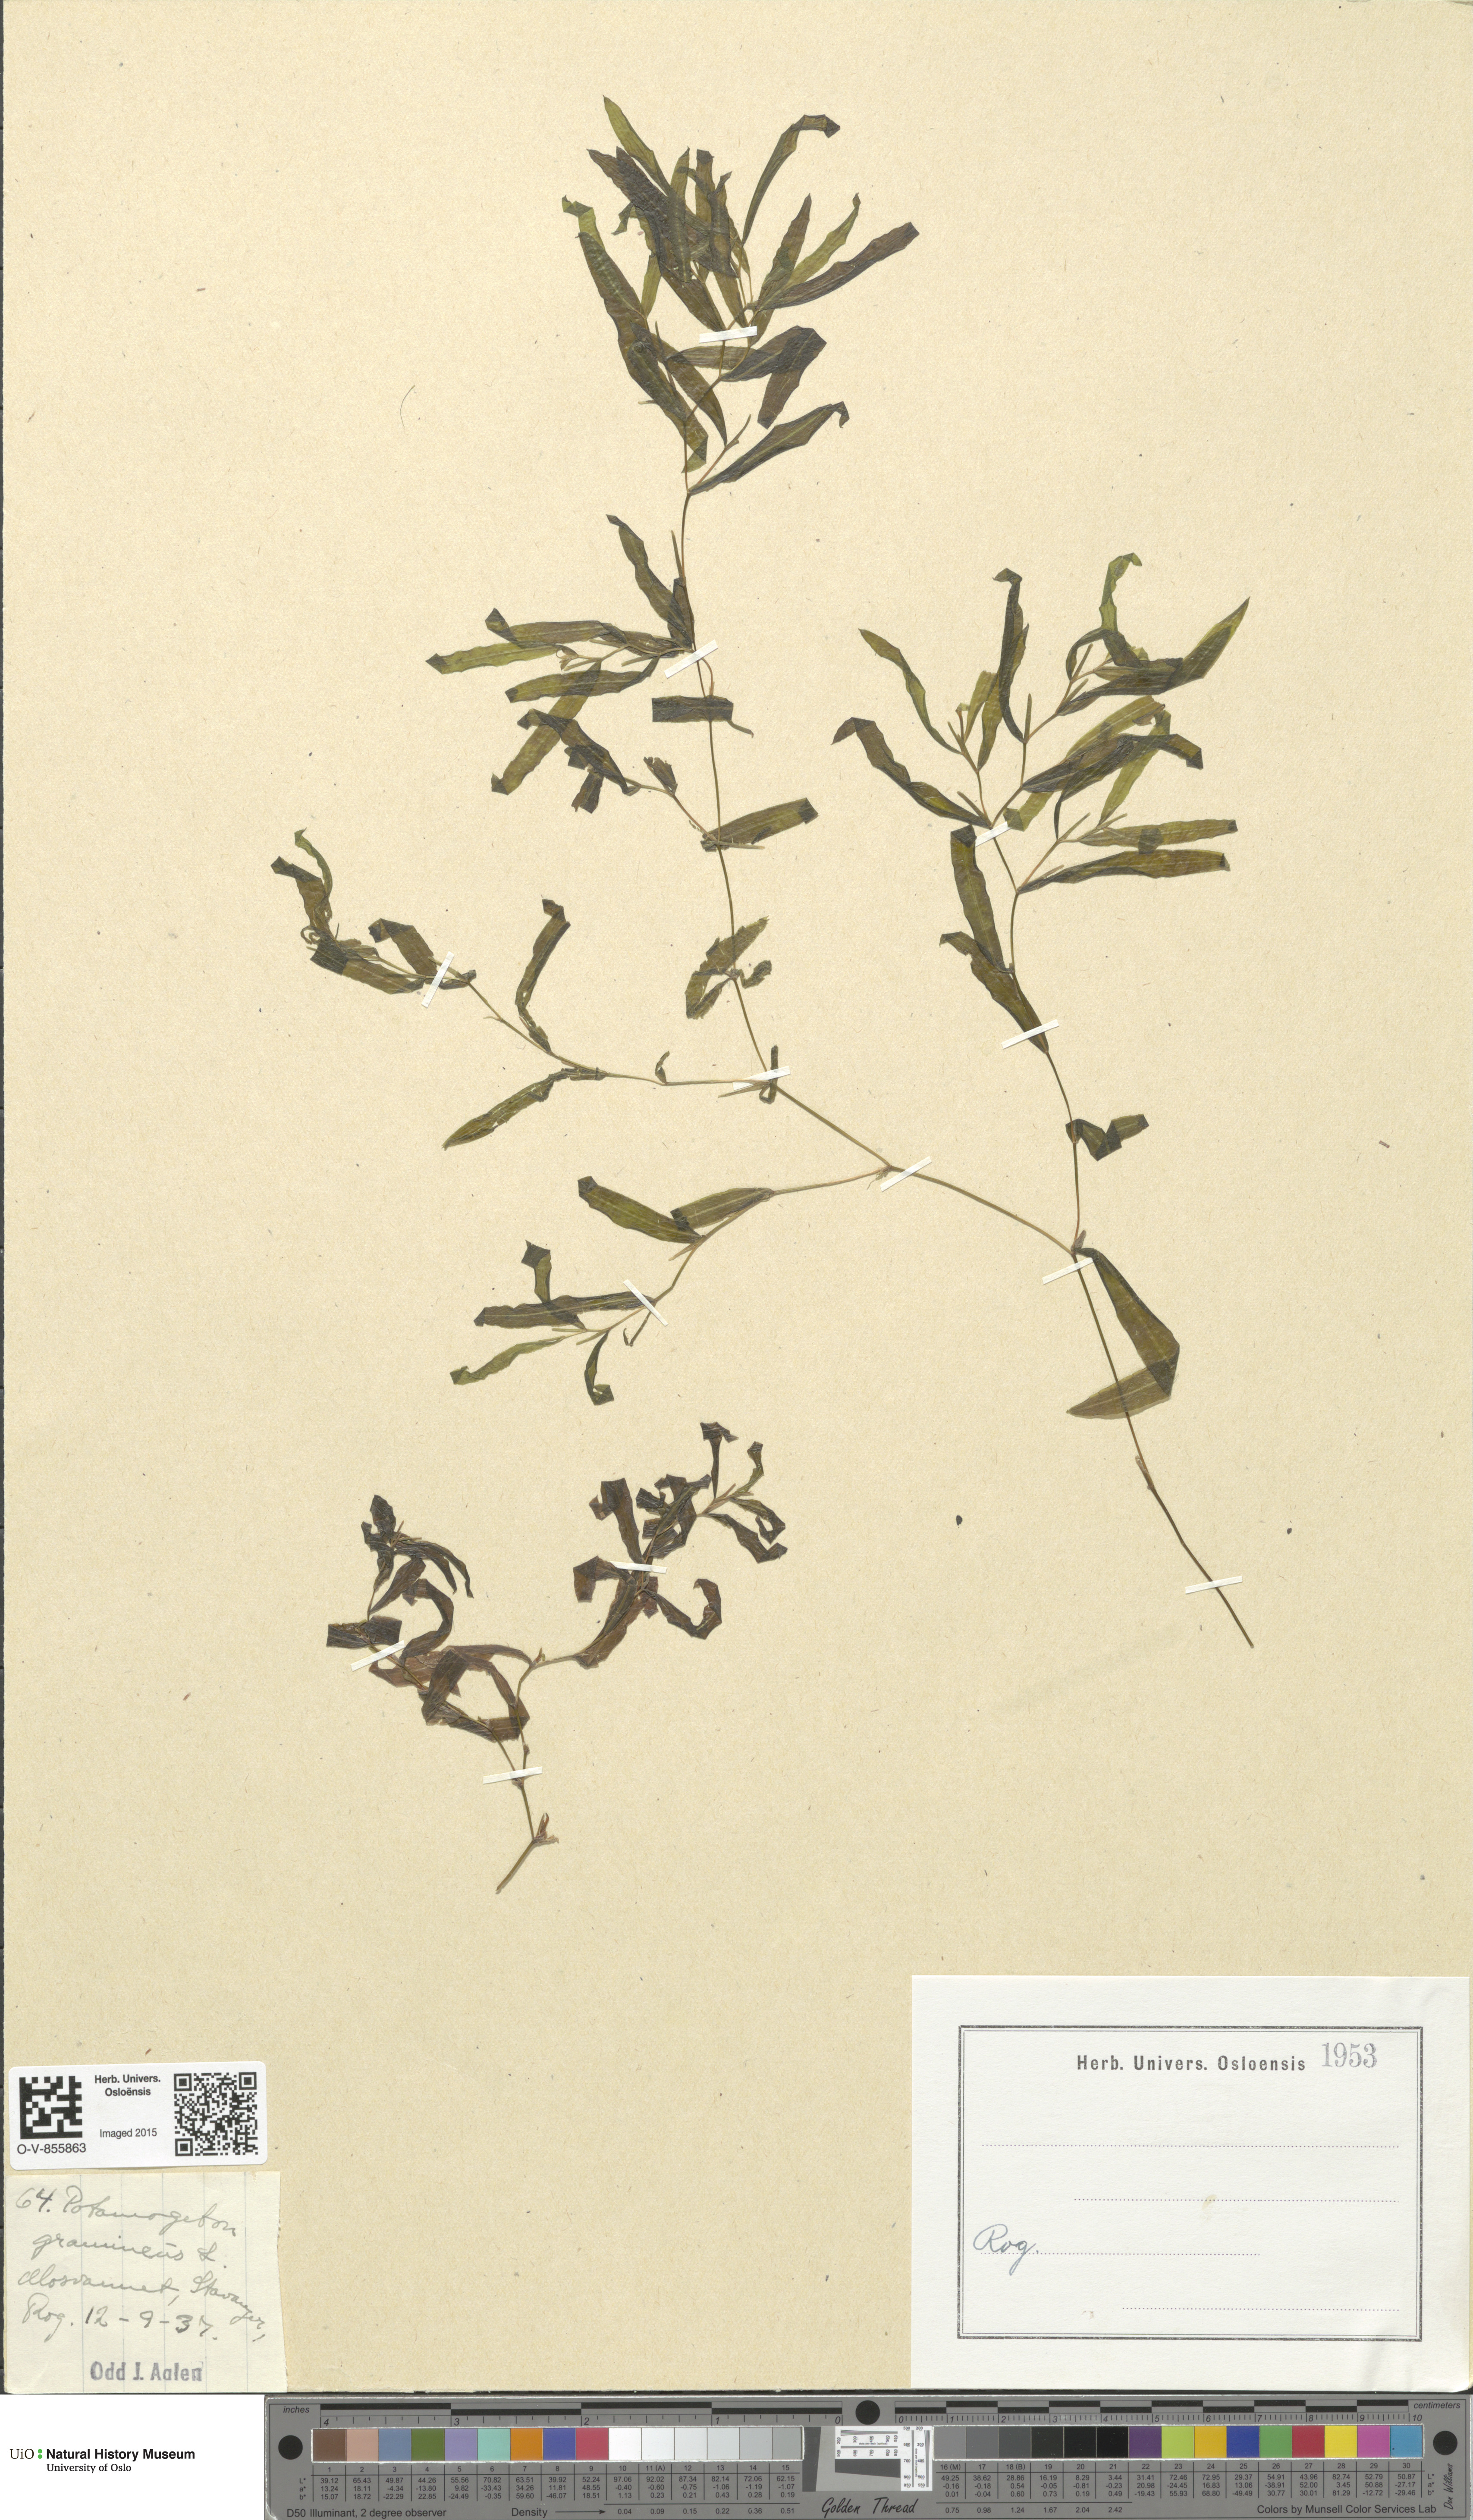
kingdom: Plantae
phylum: Tracheophyta
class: Liliopsida
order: Alismatales
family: Potamogetonaceae
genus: Potamogeton
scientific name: Potamogeton gramineus
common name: Various-leaved pondweed
